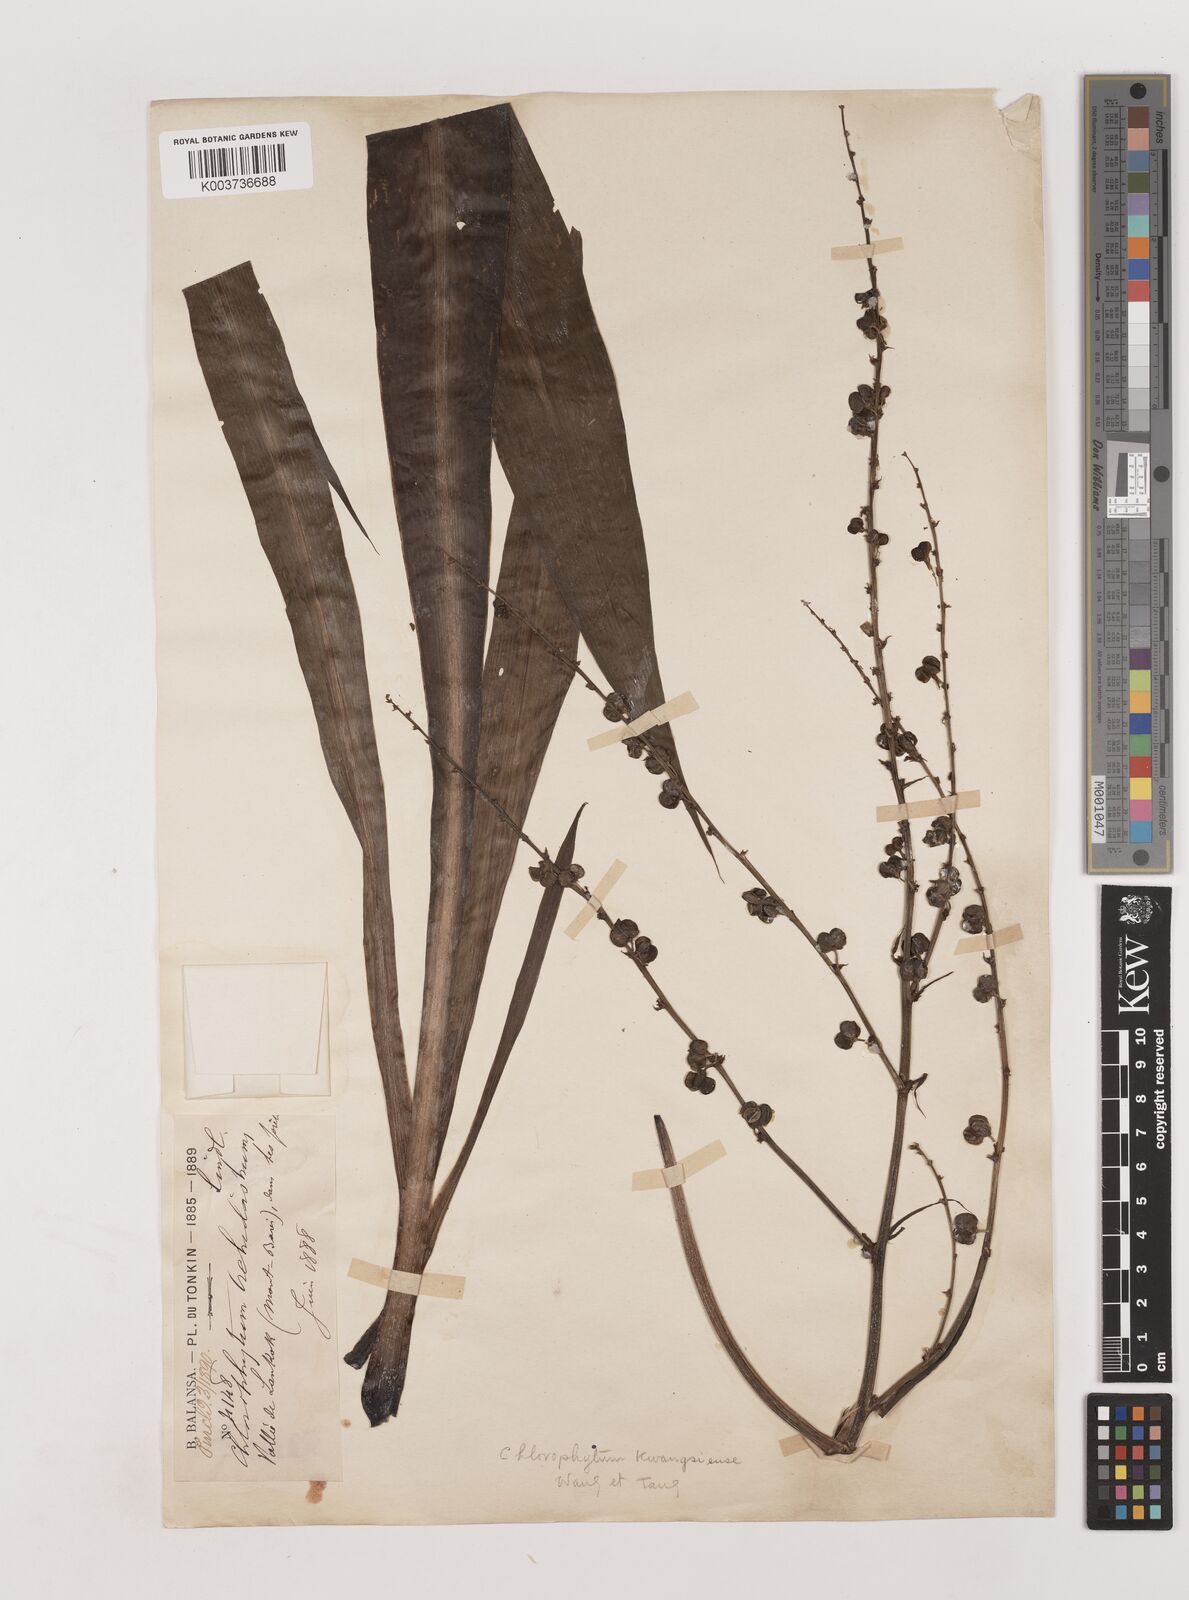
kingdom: Plantae
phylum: Tracheophyta
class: Liliopsida
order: Asparagales
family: Asparagaceae
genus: Chlorophytum
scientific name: Chlorophytum
